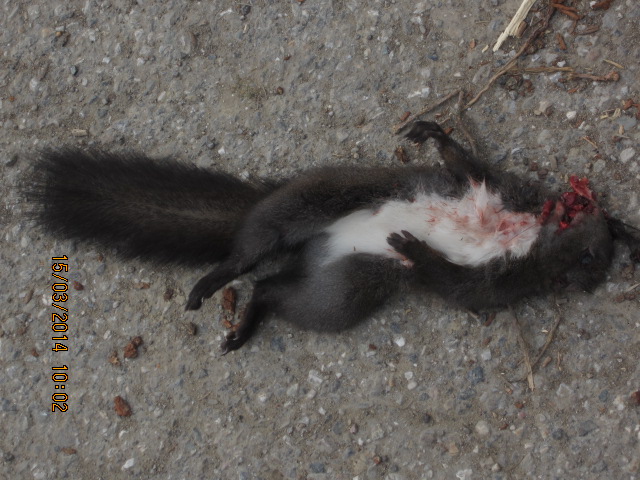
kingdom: Animalia
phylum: Chordata
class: Mammalia
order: Rodentia
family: Sciuridae
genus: Sciurus
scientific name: Sciurus vulgaris
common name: Eurasian red squirrel
